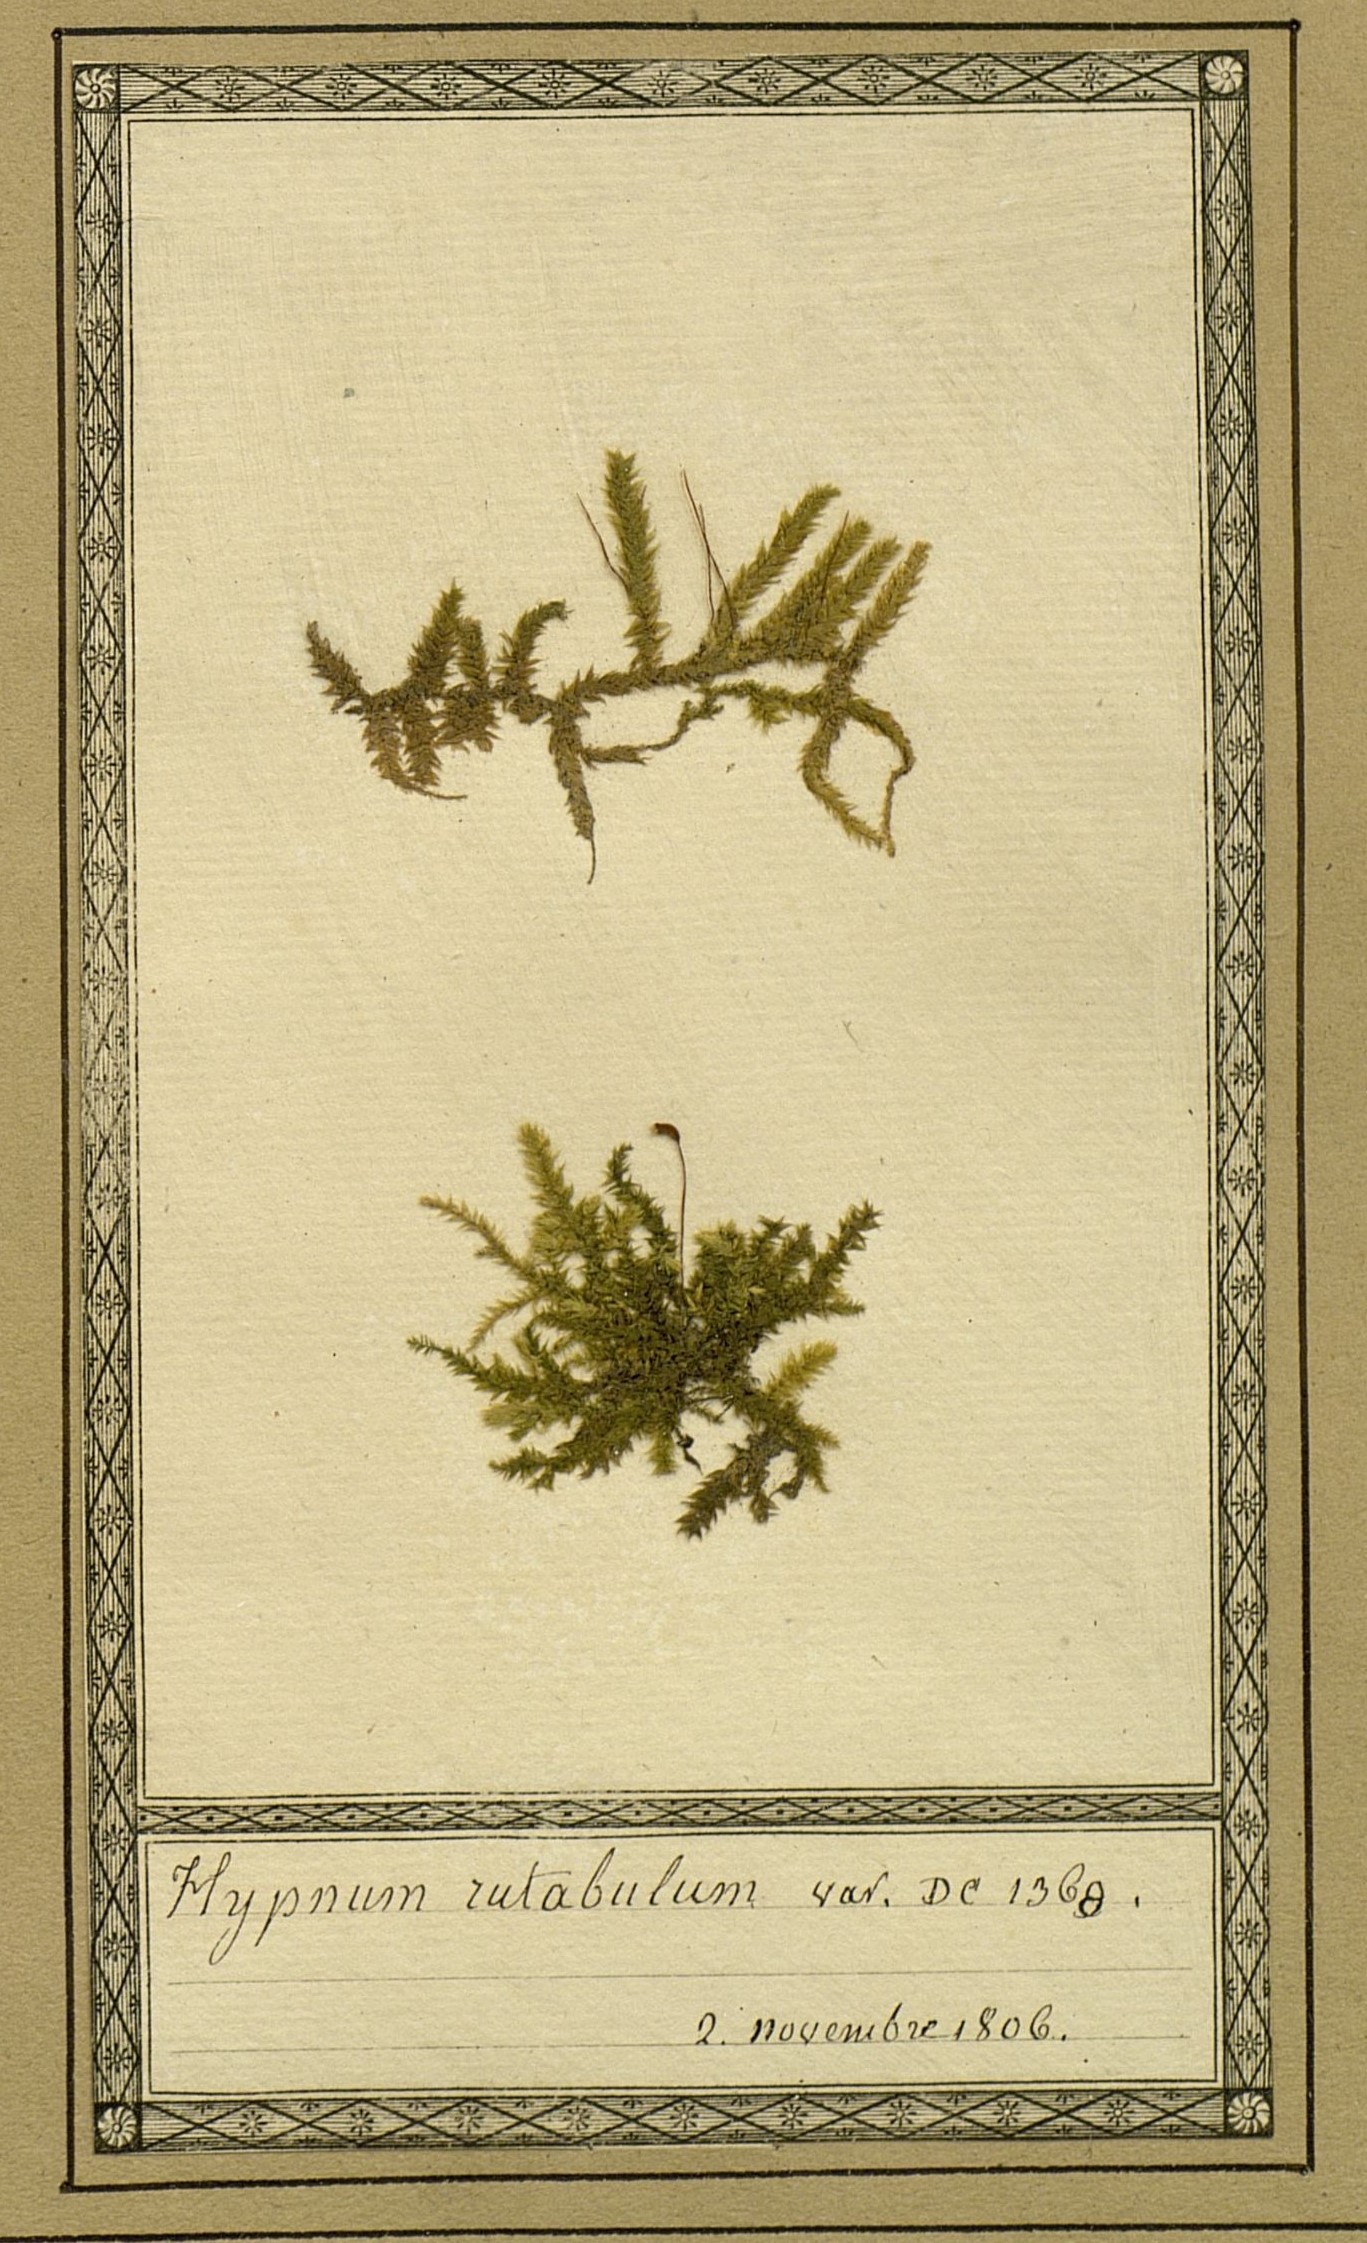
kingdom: Plantae
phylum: Bryophyta
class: Bryopsida
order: Hypnales
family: Brachytheciaceae
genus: Brachythecium
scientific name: Brachythecium rutabulum
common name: Rough-stalked feather-moss
